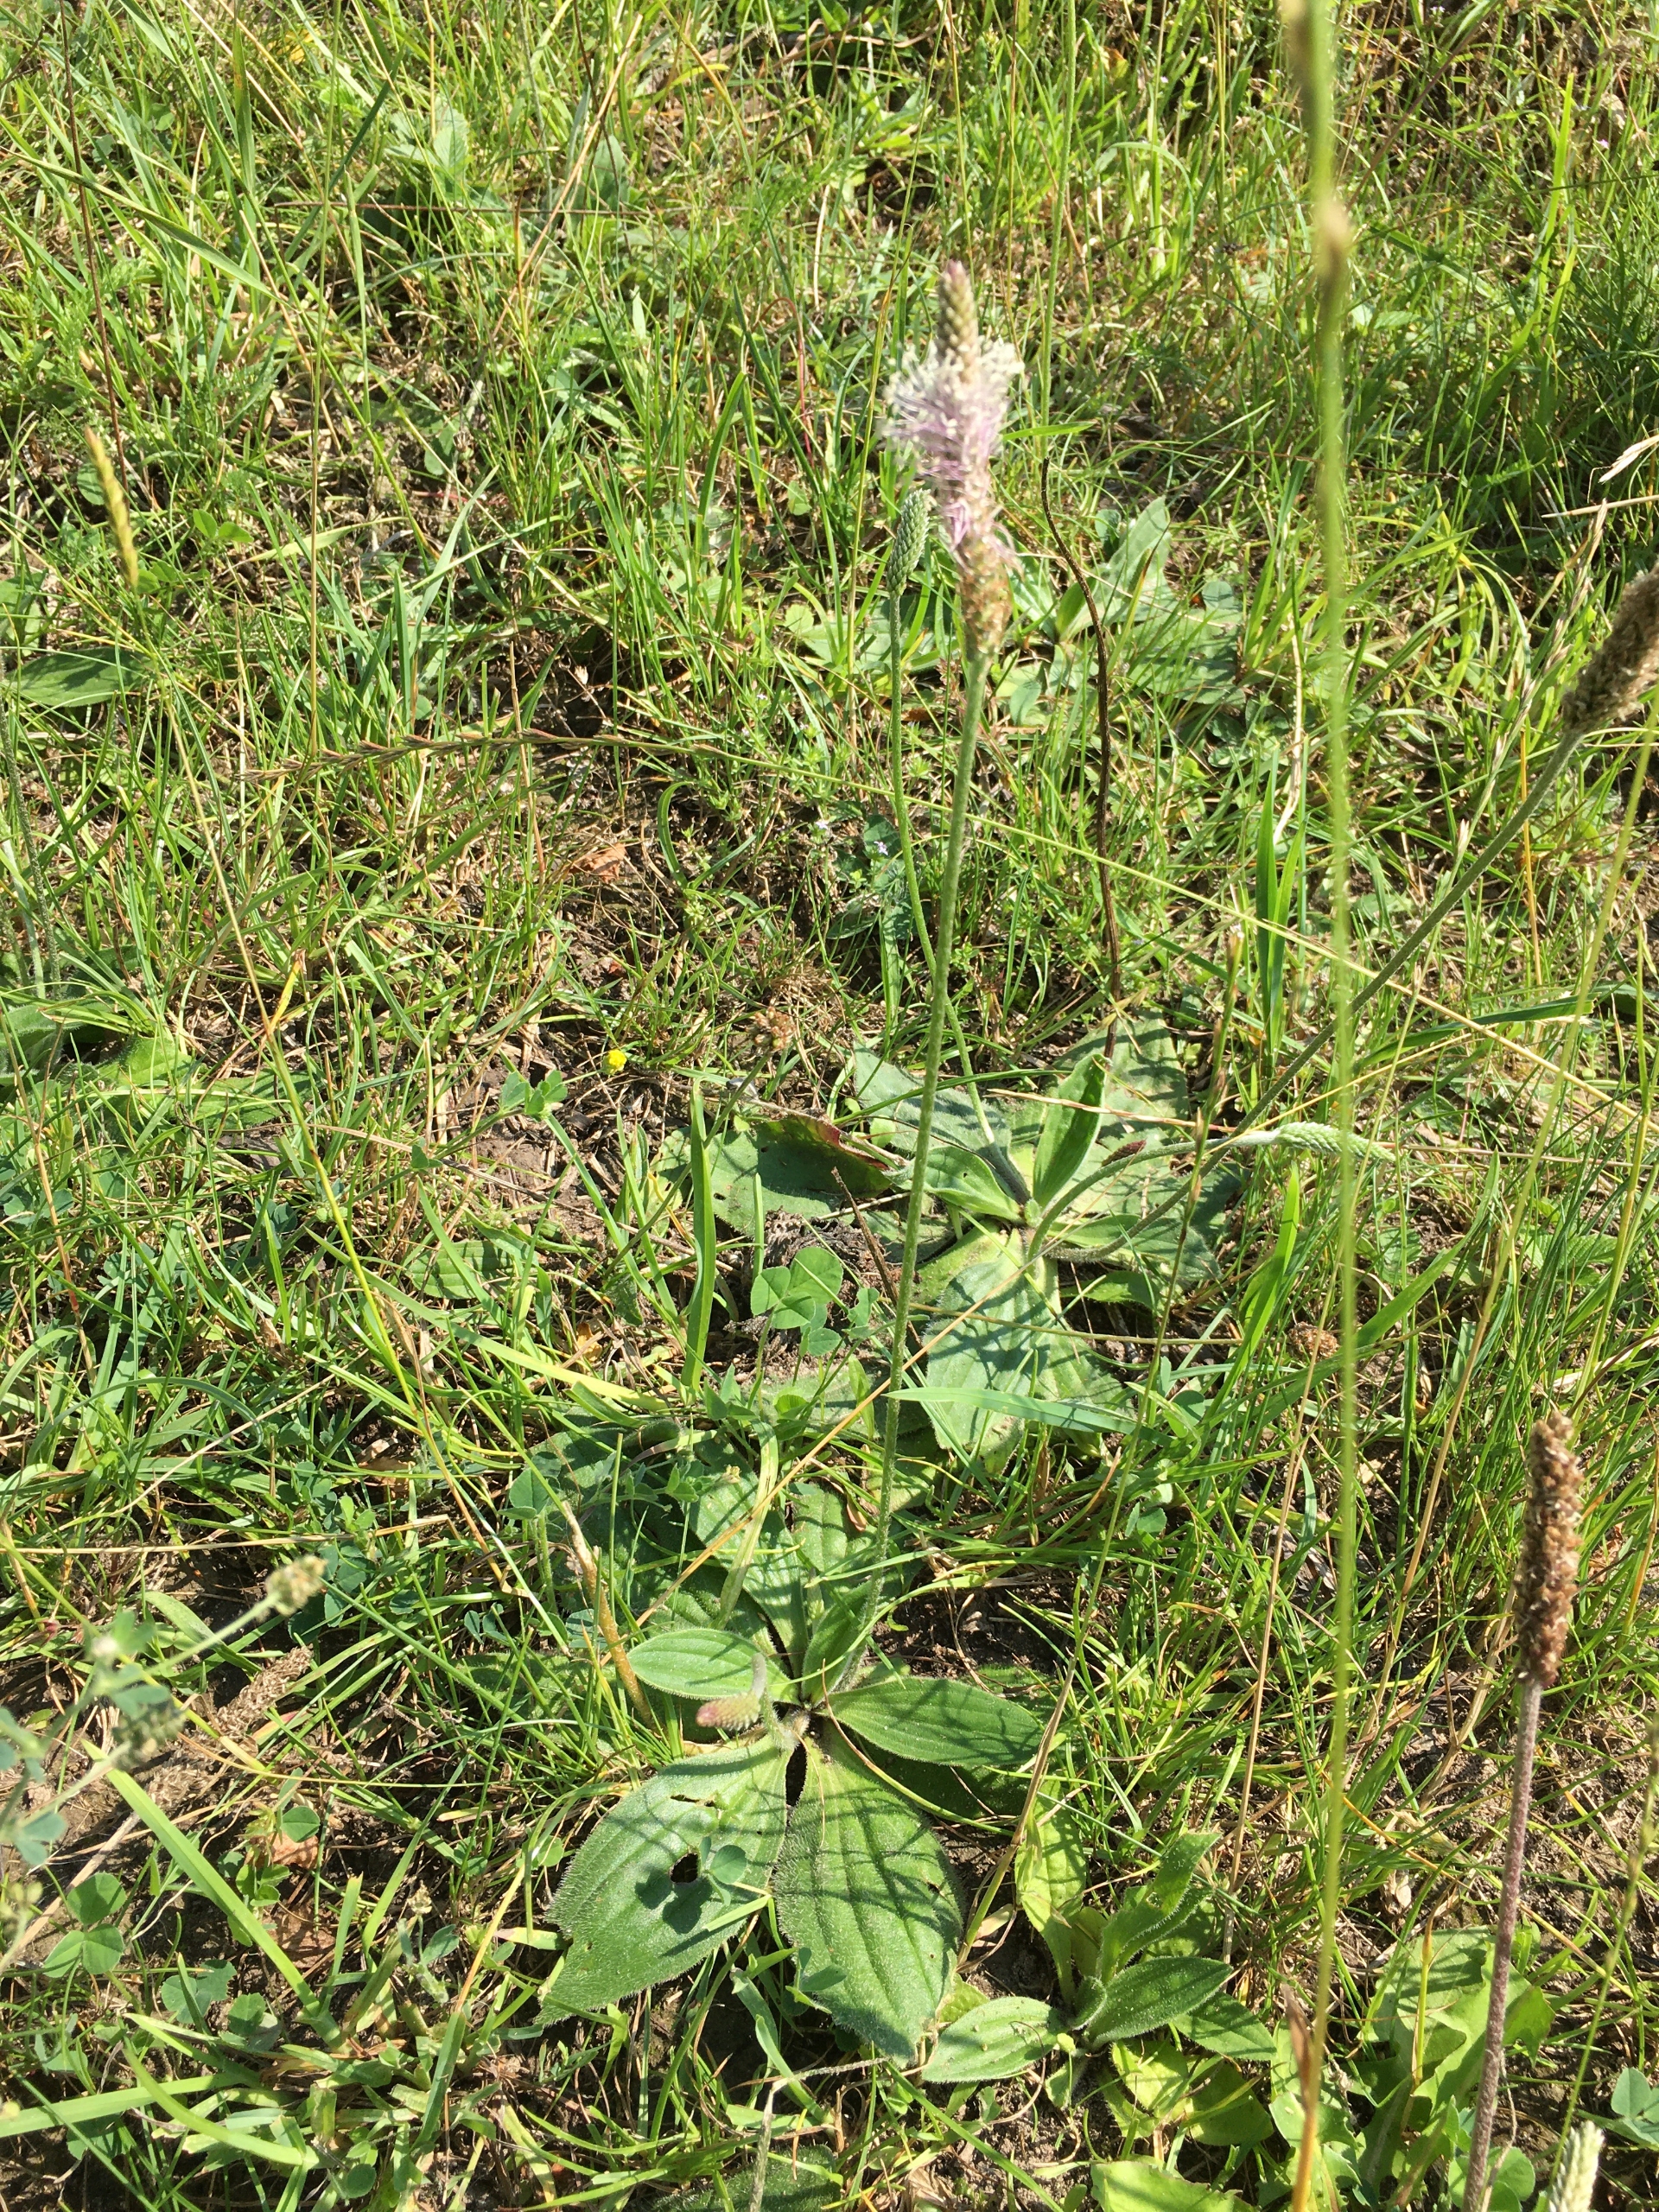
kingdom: Plantae
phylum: Tracheophyta
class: Magnoliopsida
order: Lamiales
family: Plantaginaceae
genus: Plantago
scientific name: Plantago media
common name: Dunet vejbred
